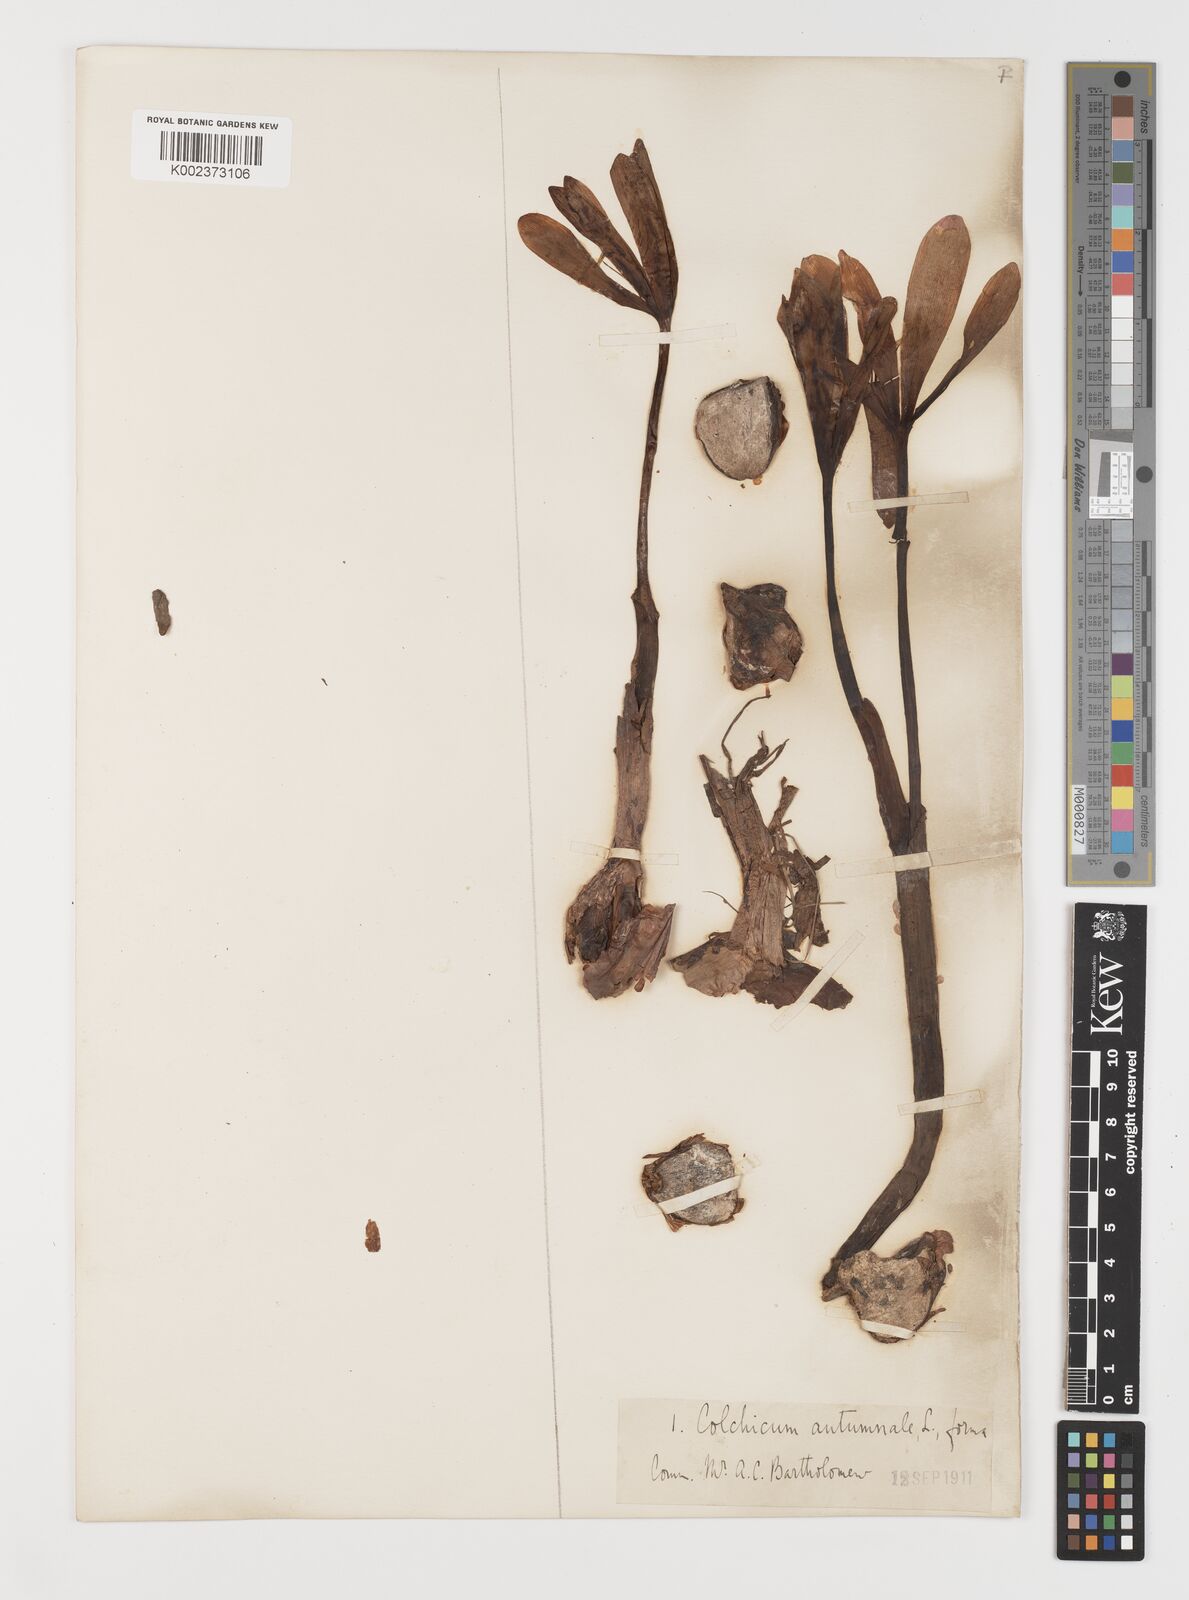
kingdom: Plantae
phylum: Tracheophyta
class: Liliopsida
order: Liliales
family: Colchicaceae
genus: Colchicum
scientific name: Colchicum autumnale
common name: Autumn crocus
